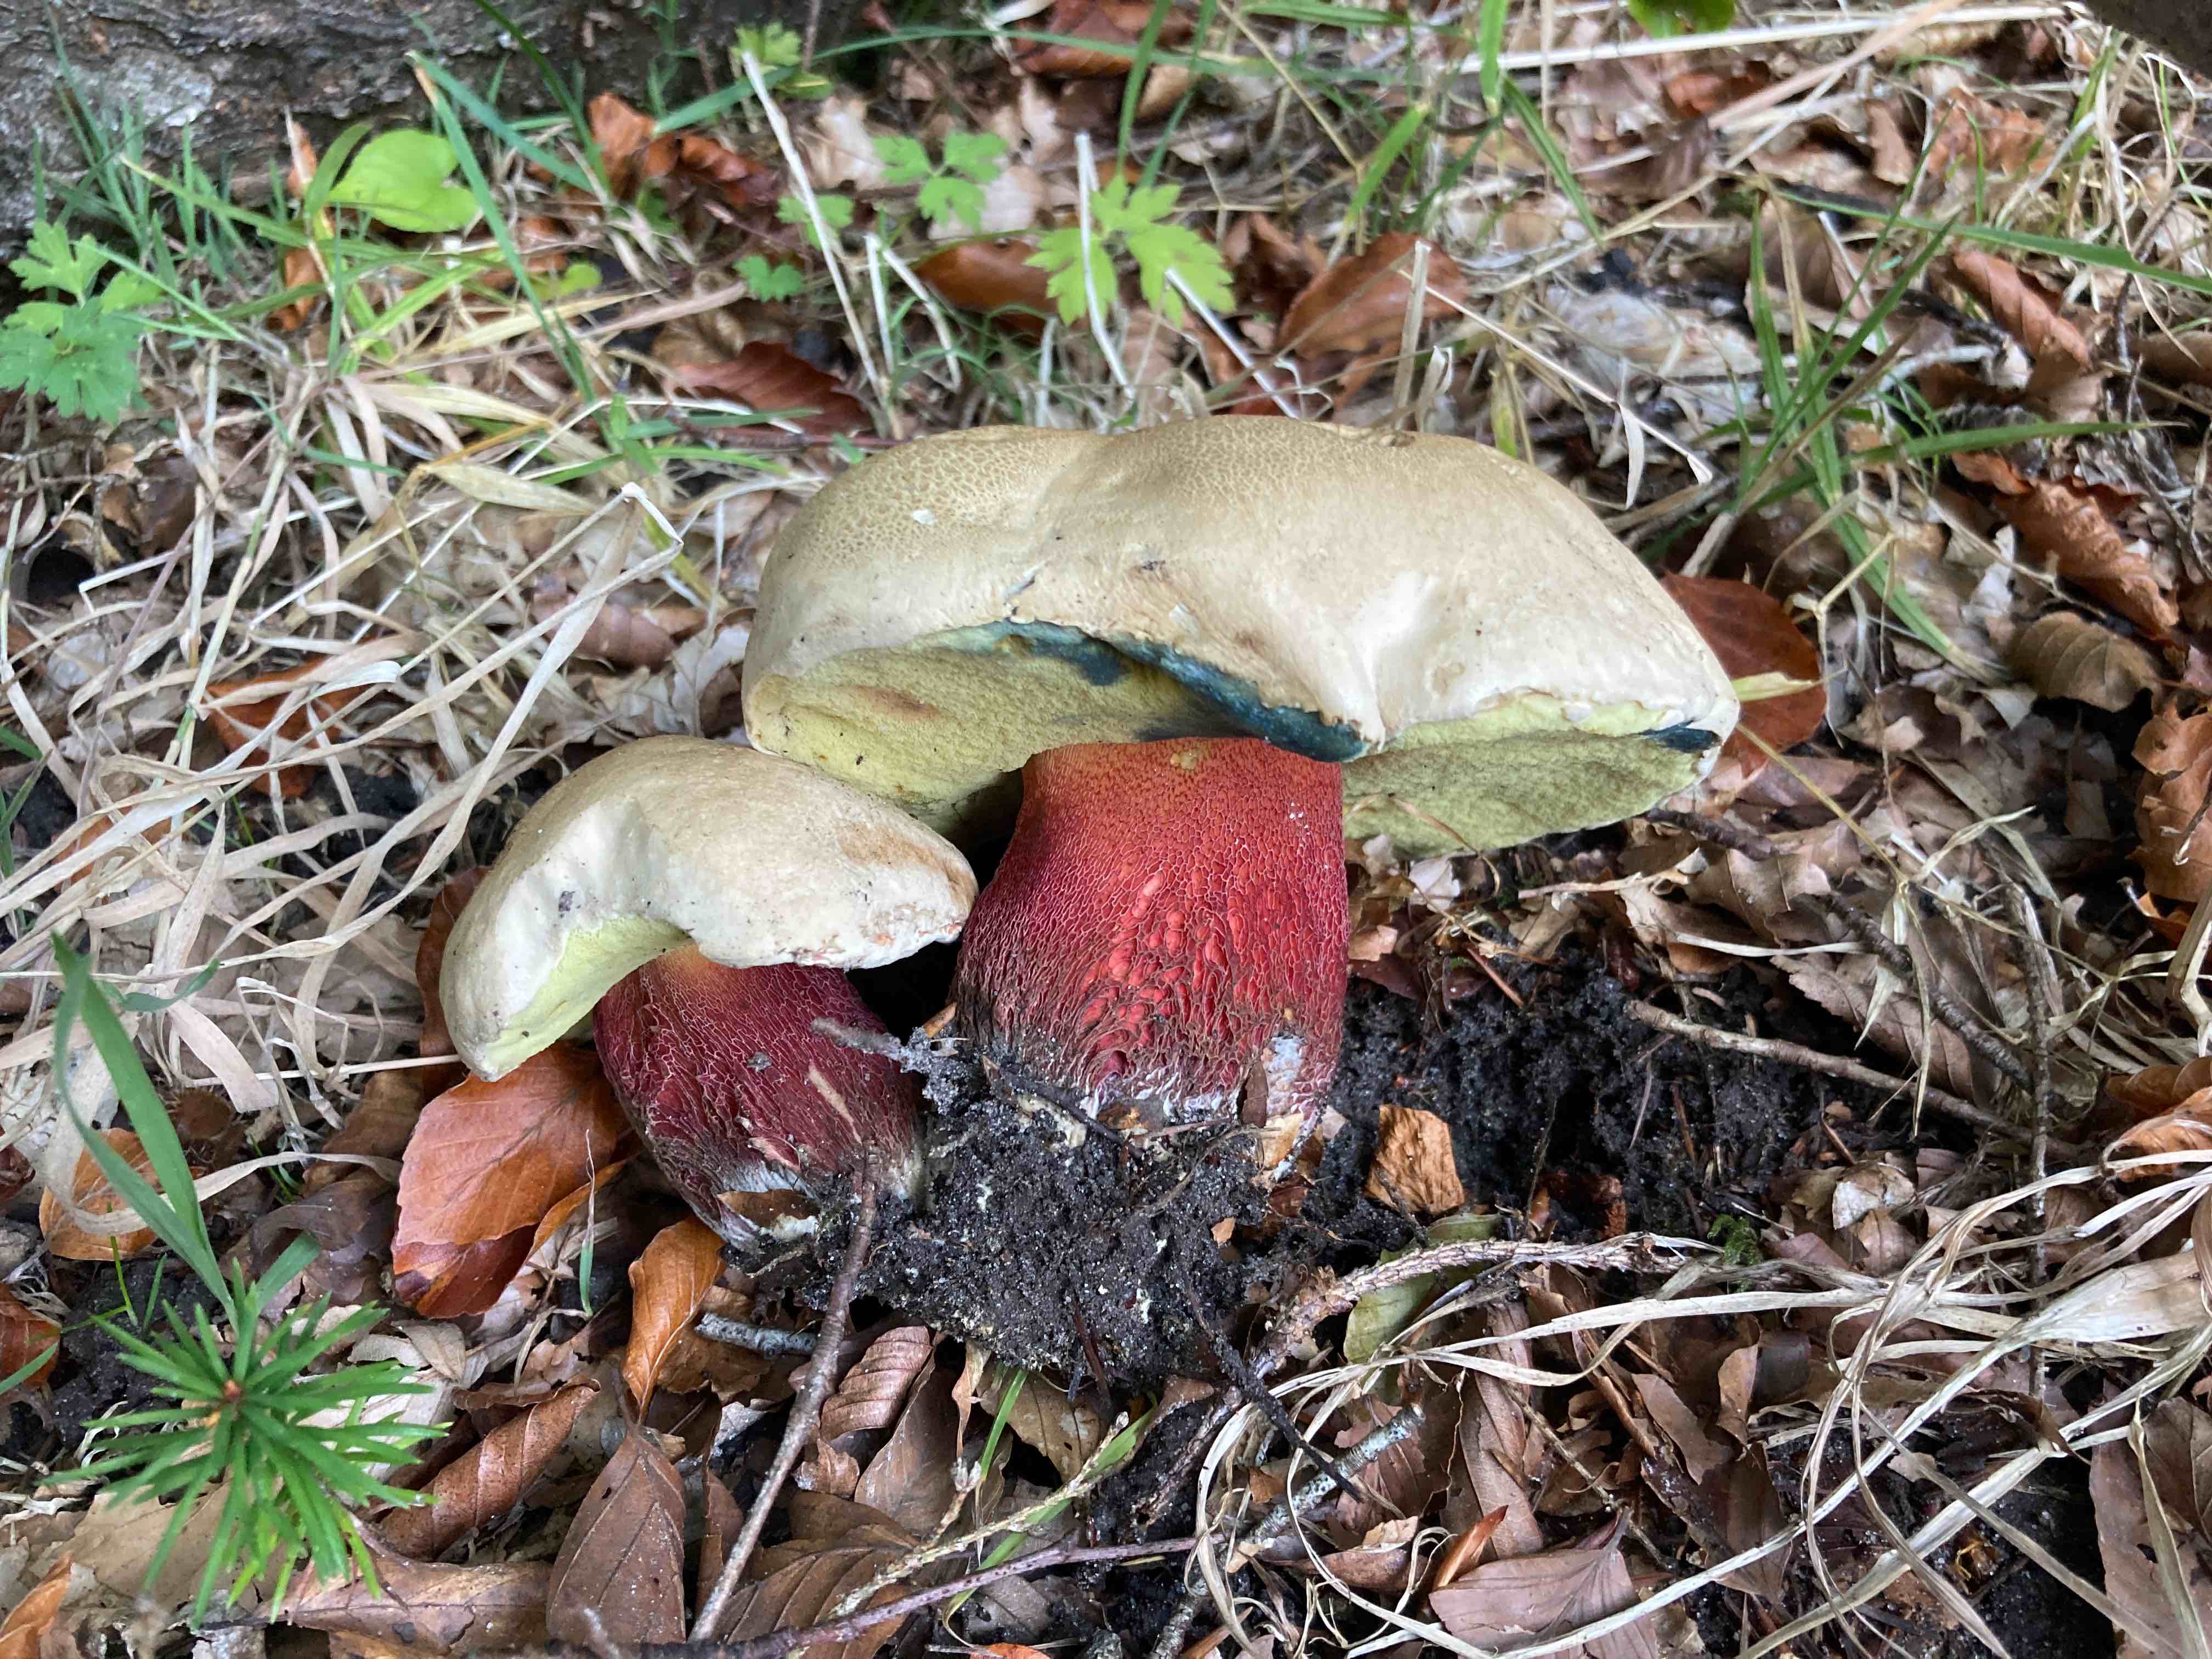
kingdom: Fungi
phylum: Basidiomycota
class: Agaricomycetes
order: Boletales
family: Boletaceae
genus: Caloboletus
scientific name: Caloboletus calopus
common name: skønfodet rørhat
